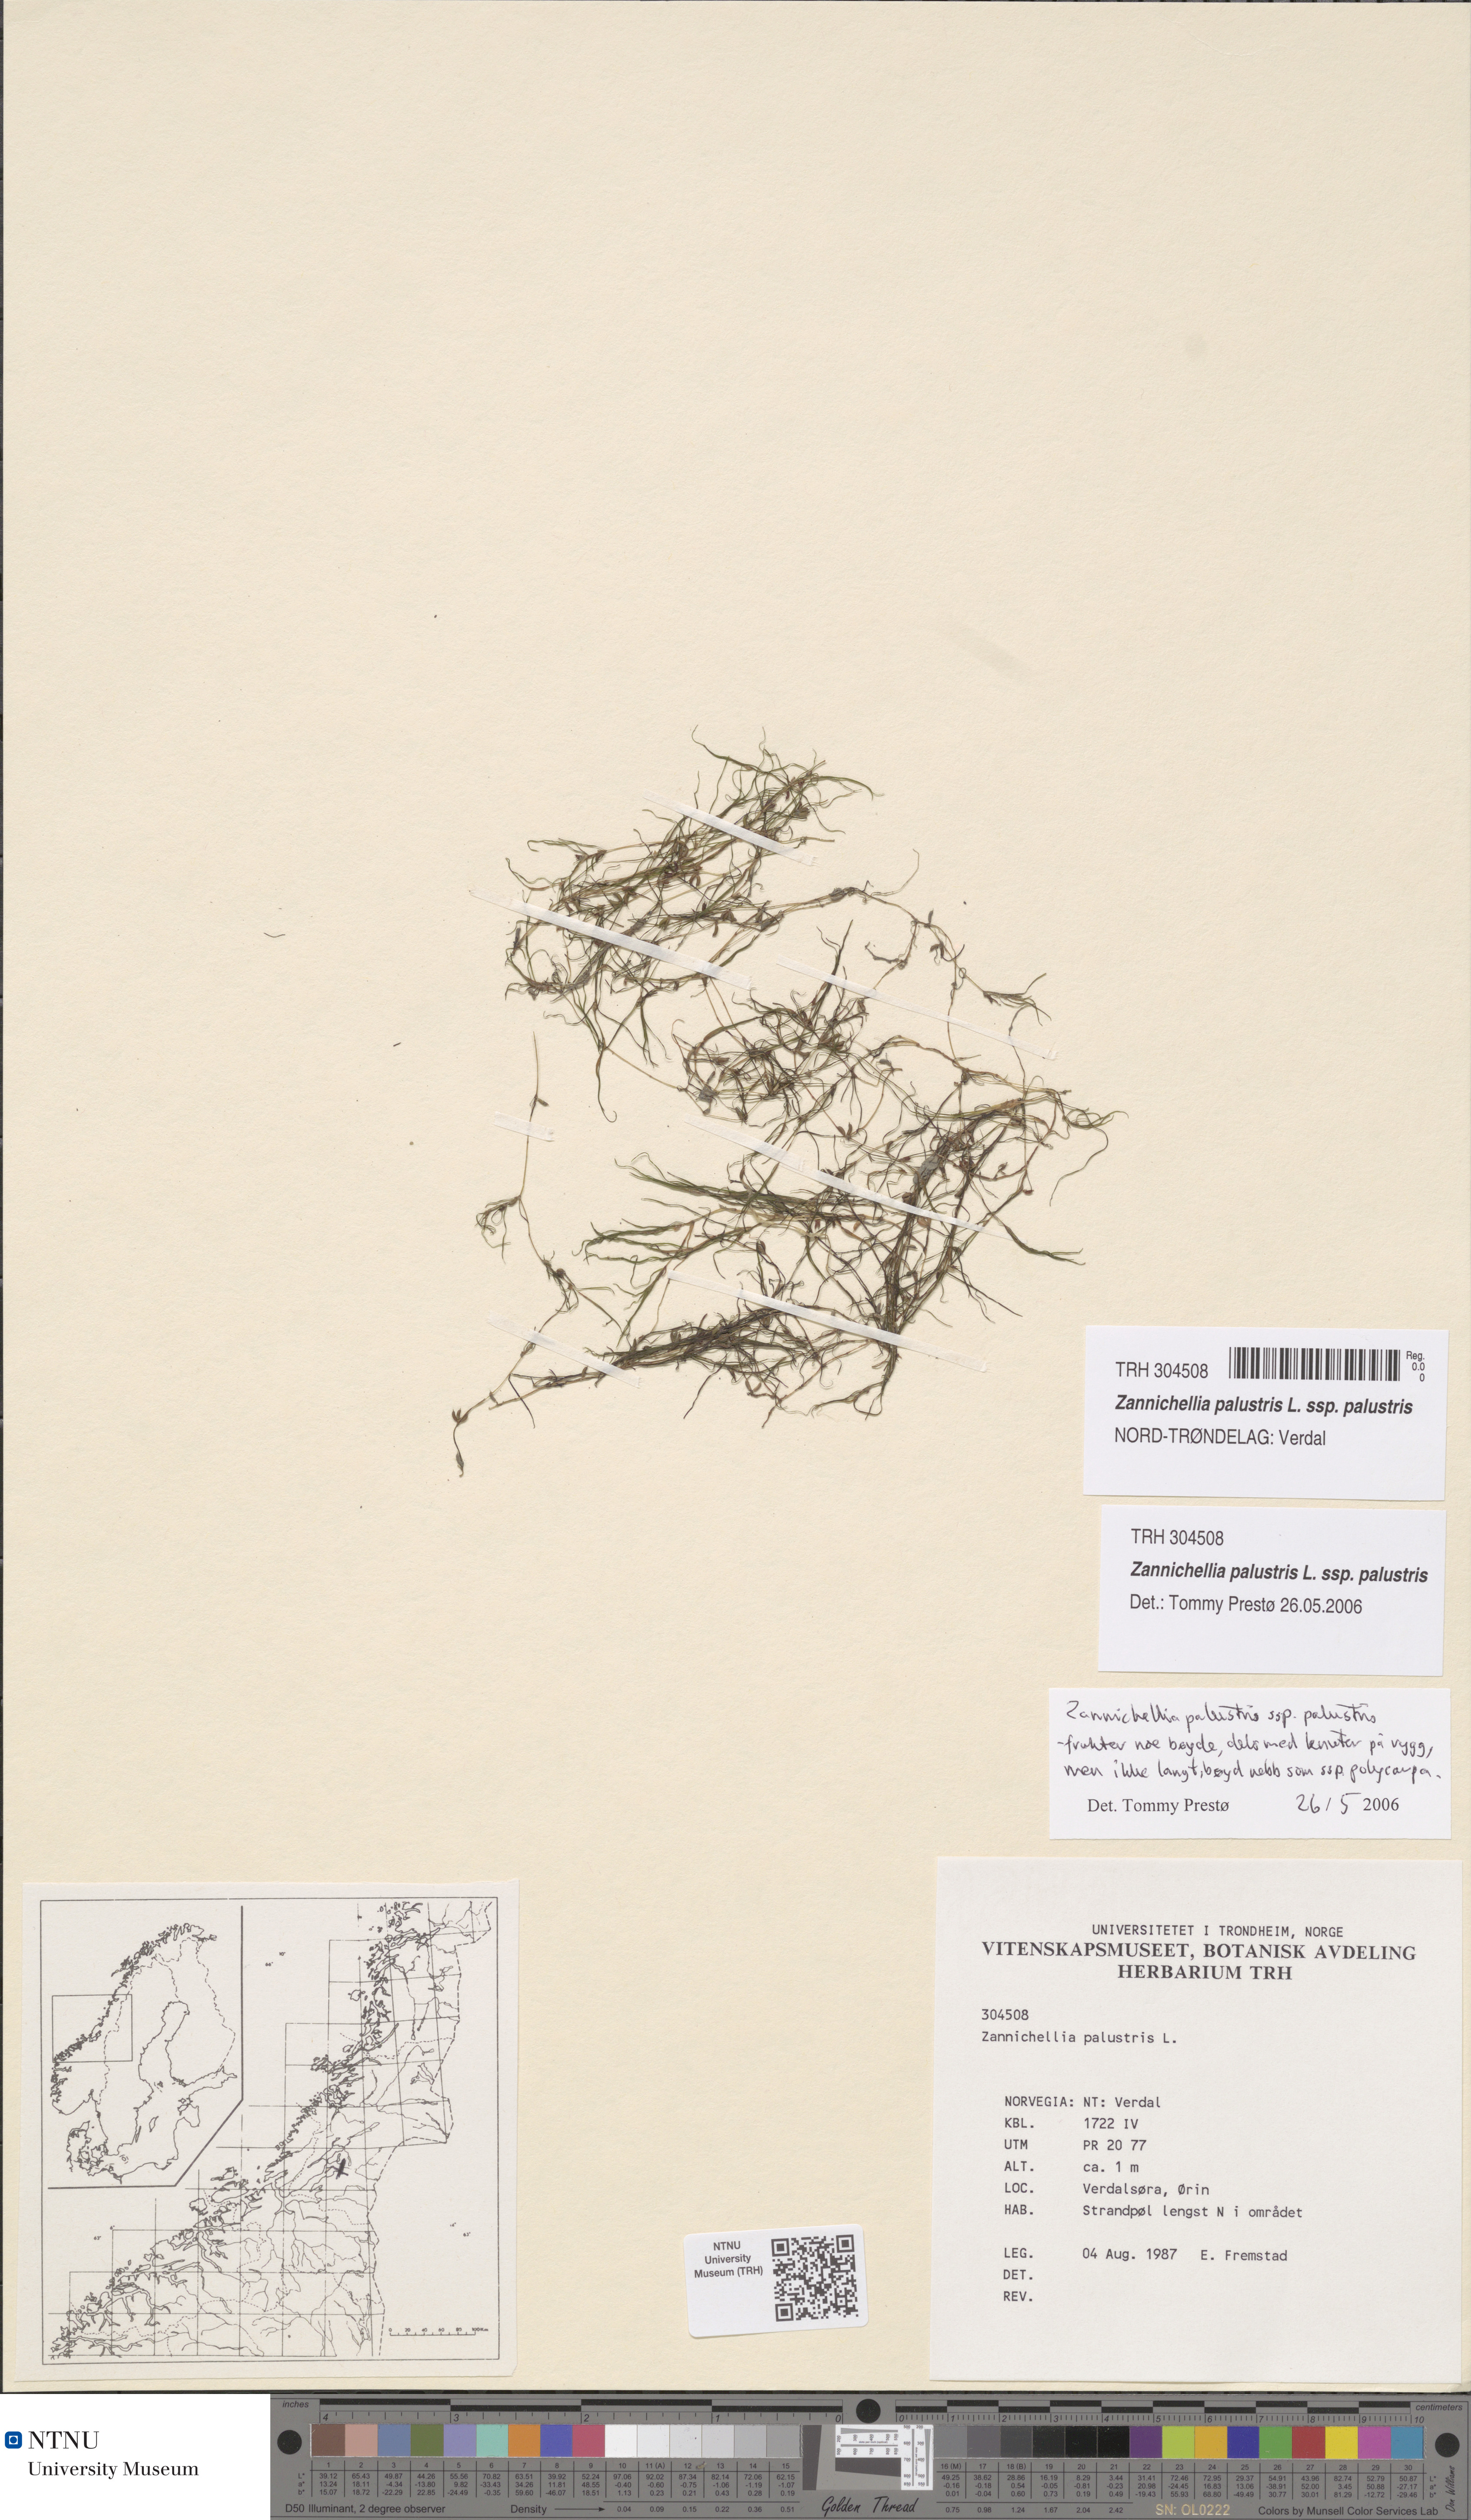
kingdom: Plantae
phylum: Tracheophyta
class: Liliopsida
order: Alismatales
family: Potamogetonaceae
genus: Zannichellia
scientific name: Zannichellia palustris
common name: Horned pondweed
